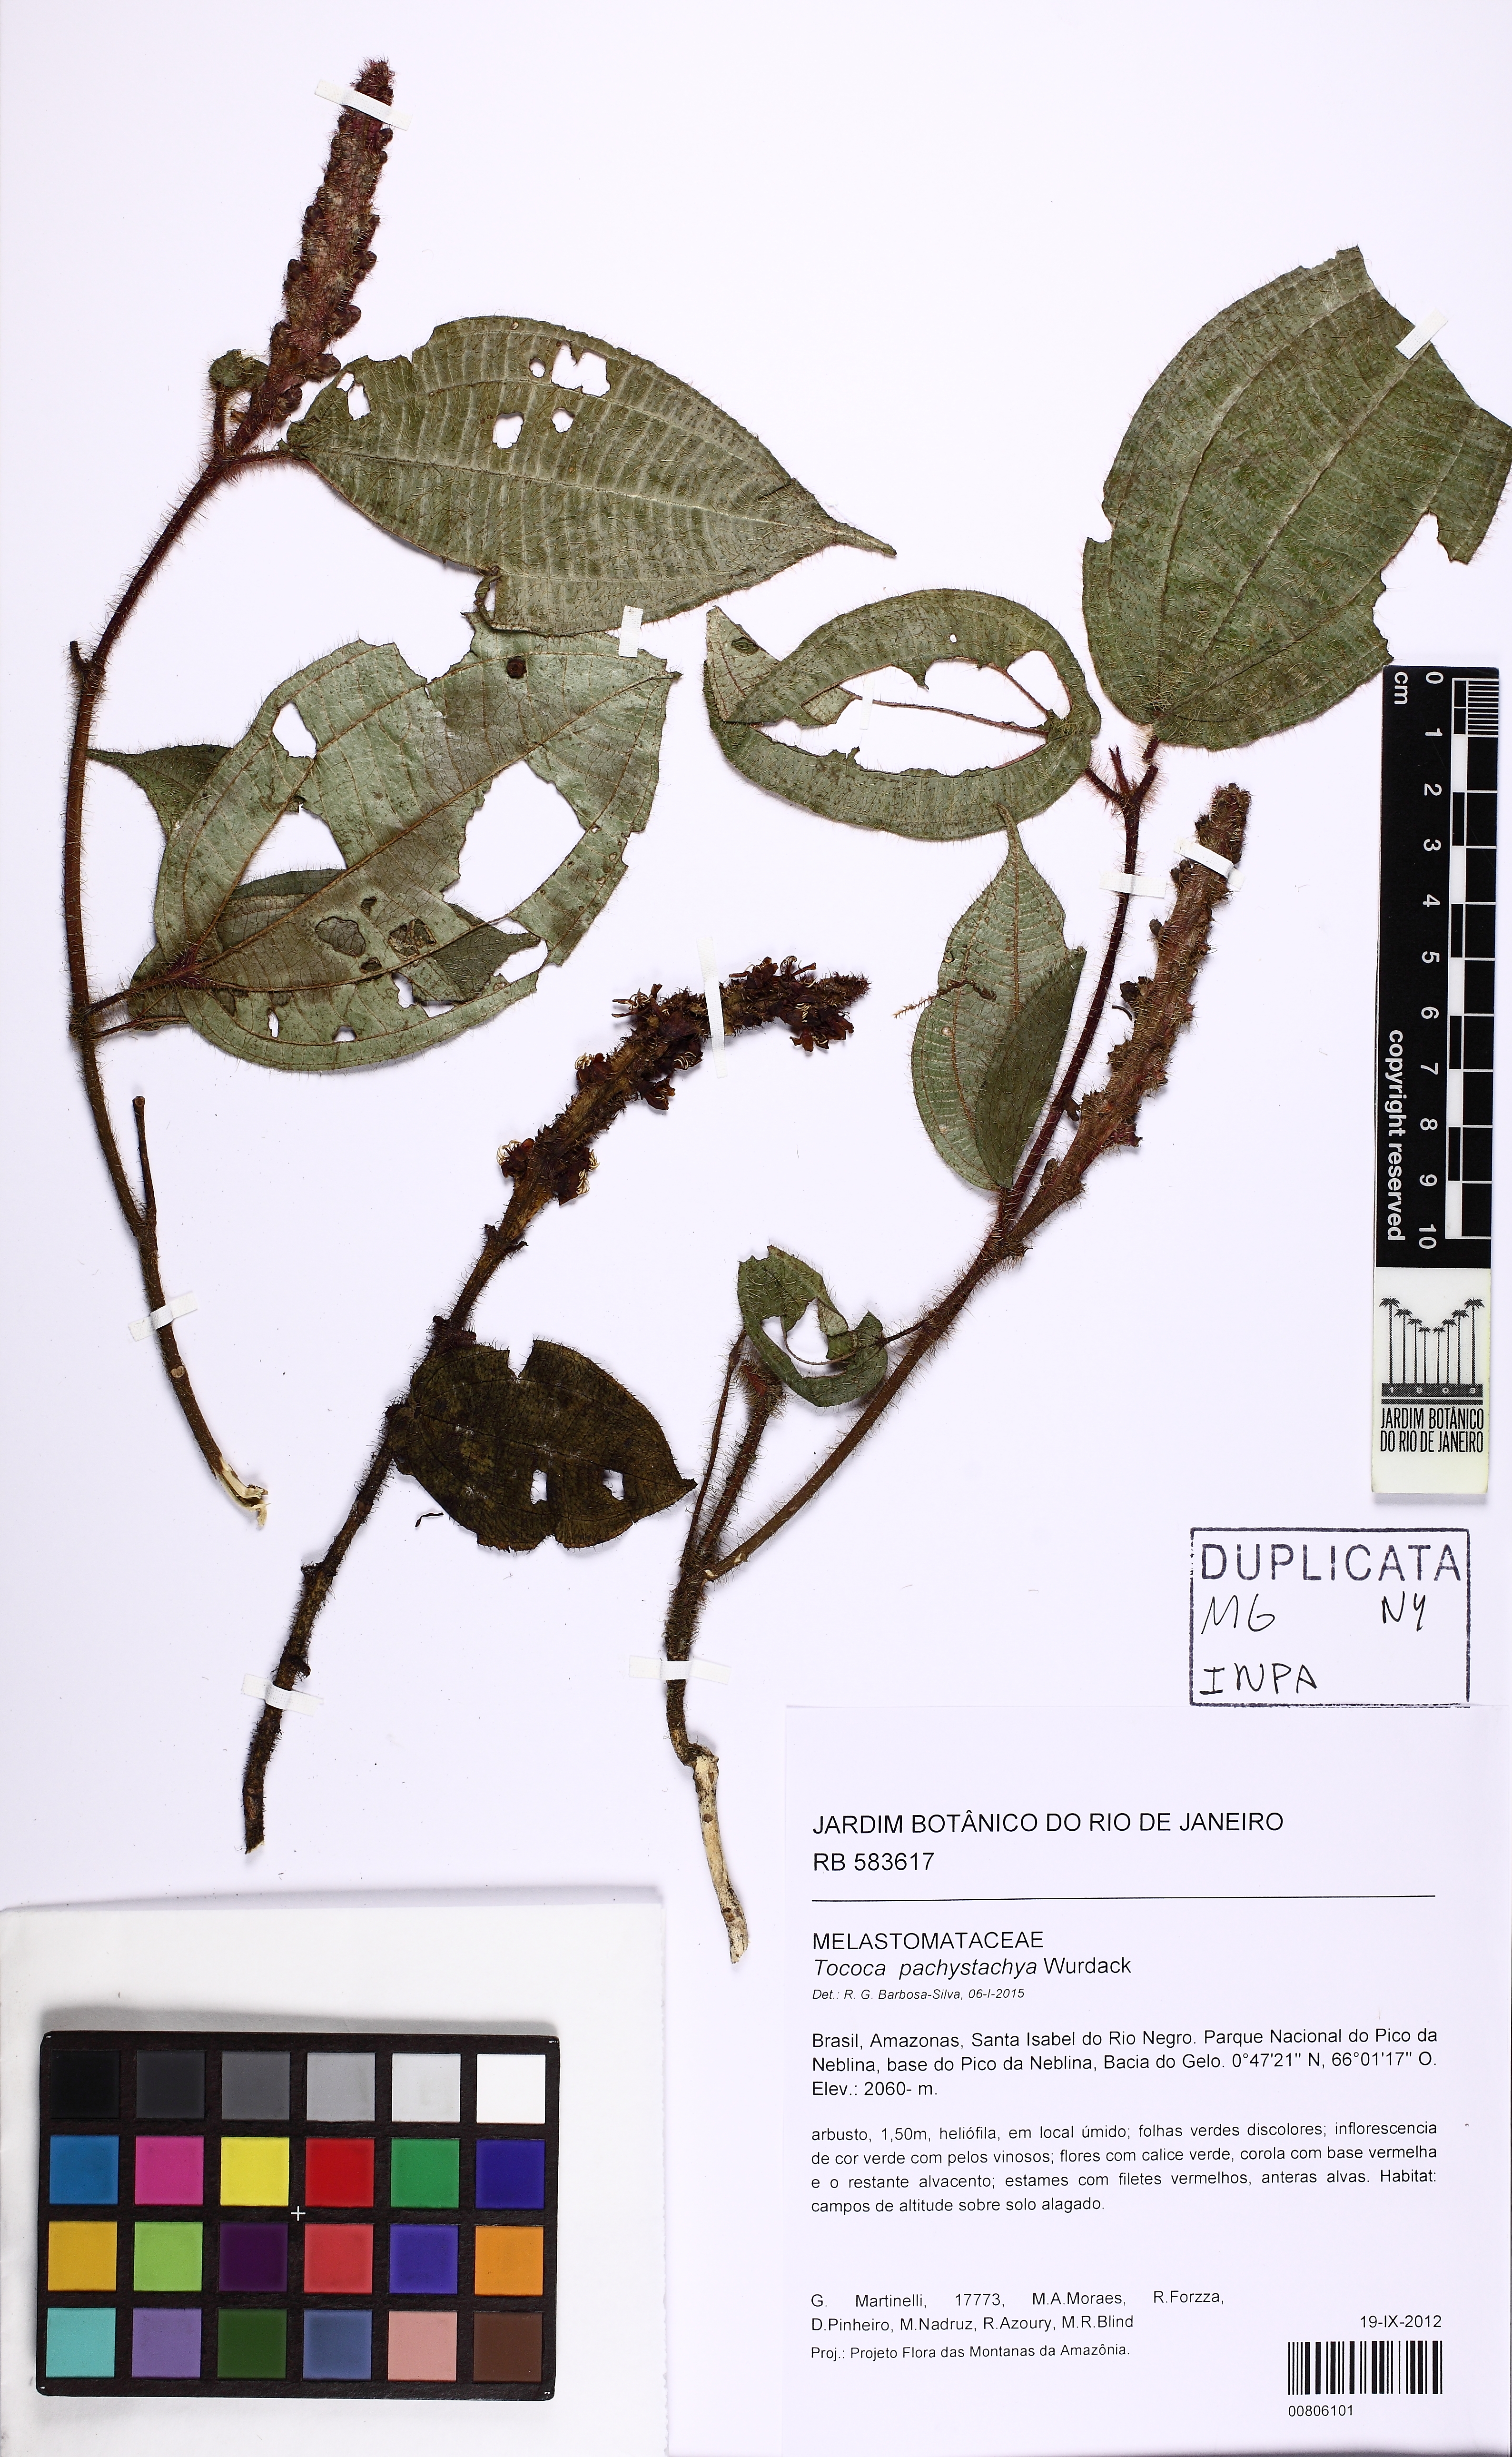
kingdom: Plantae
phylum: Tracheophyta
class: Magnoliopsida
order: Myrtales
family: Melastomataceae
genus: Miconia
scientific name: Miconia pachystachya
